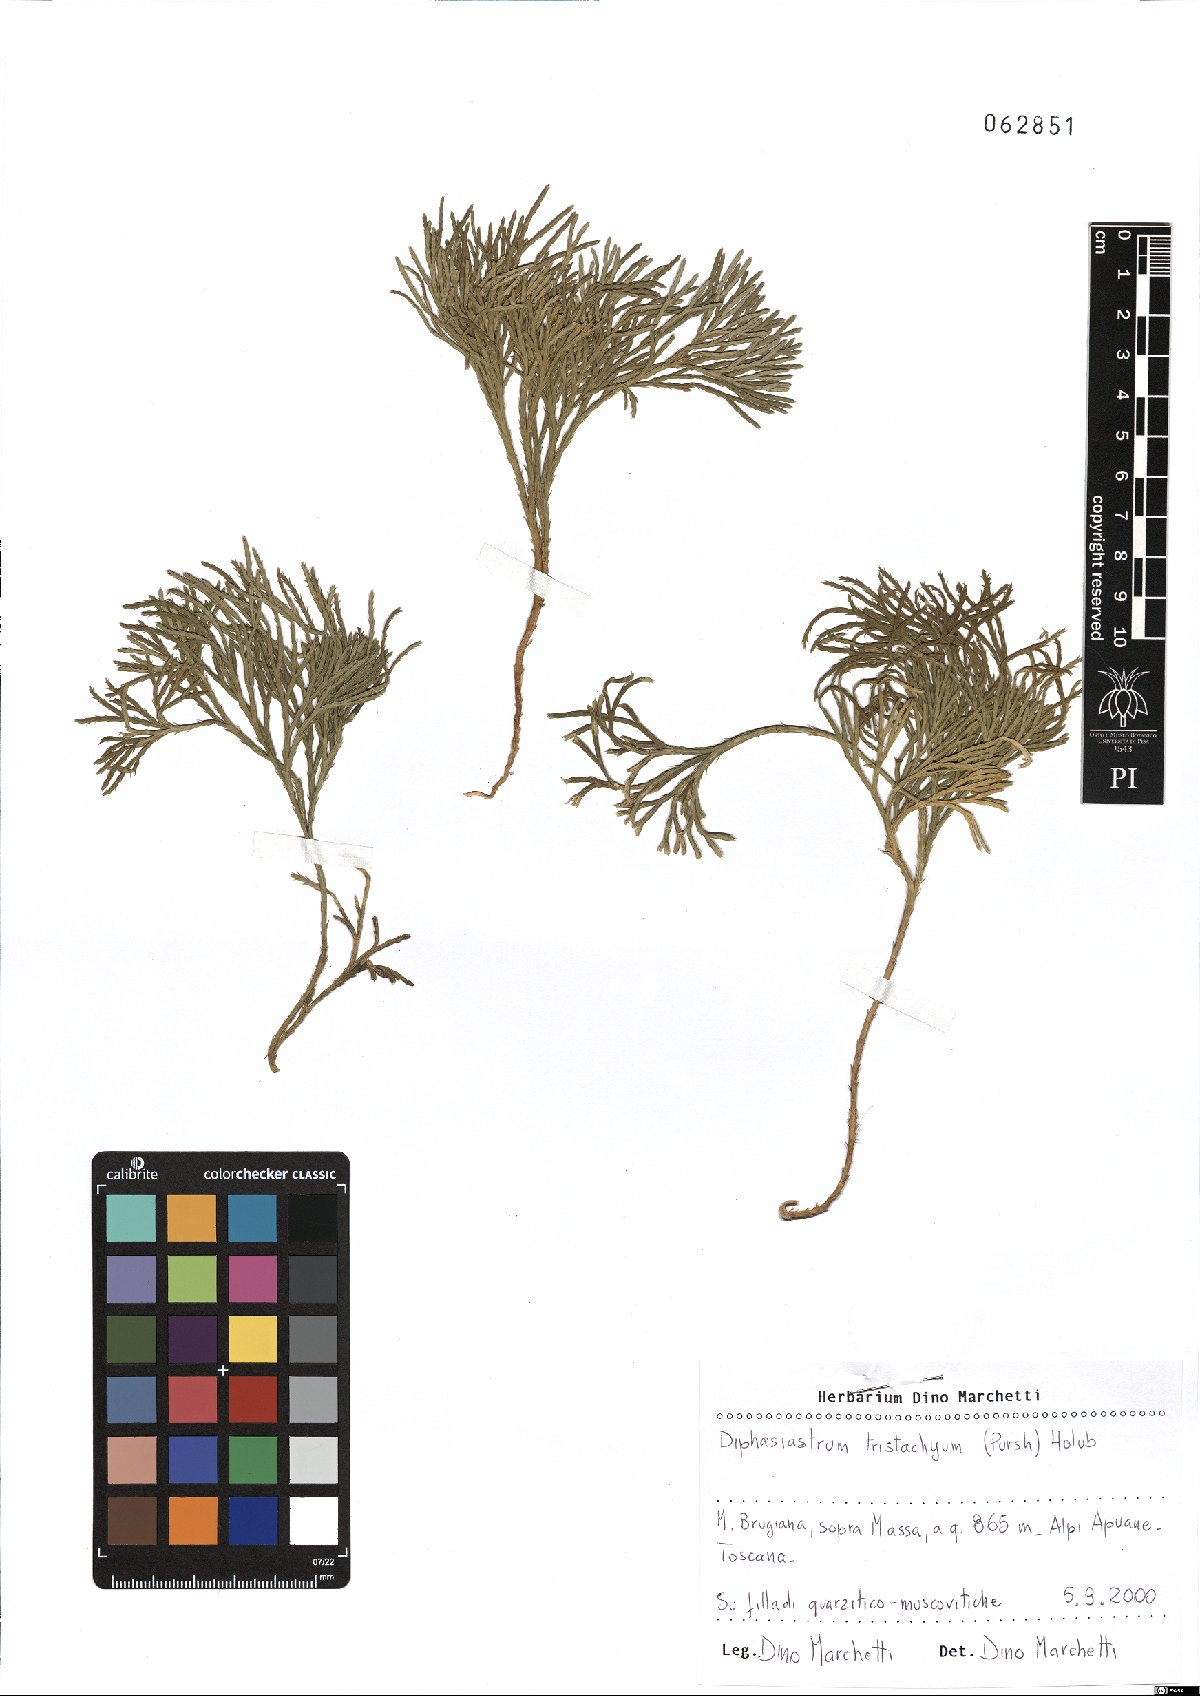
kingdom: Plantae
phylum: Tracheophyta
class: Lycopodiopsida
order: Lycopodiales
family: Lycopodiaceae
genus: Diphasiastrum
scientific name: Diphasiastrum tristachyum
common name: Blue ground-cedar
